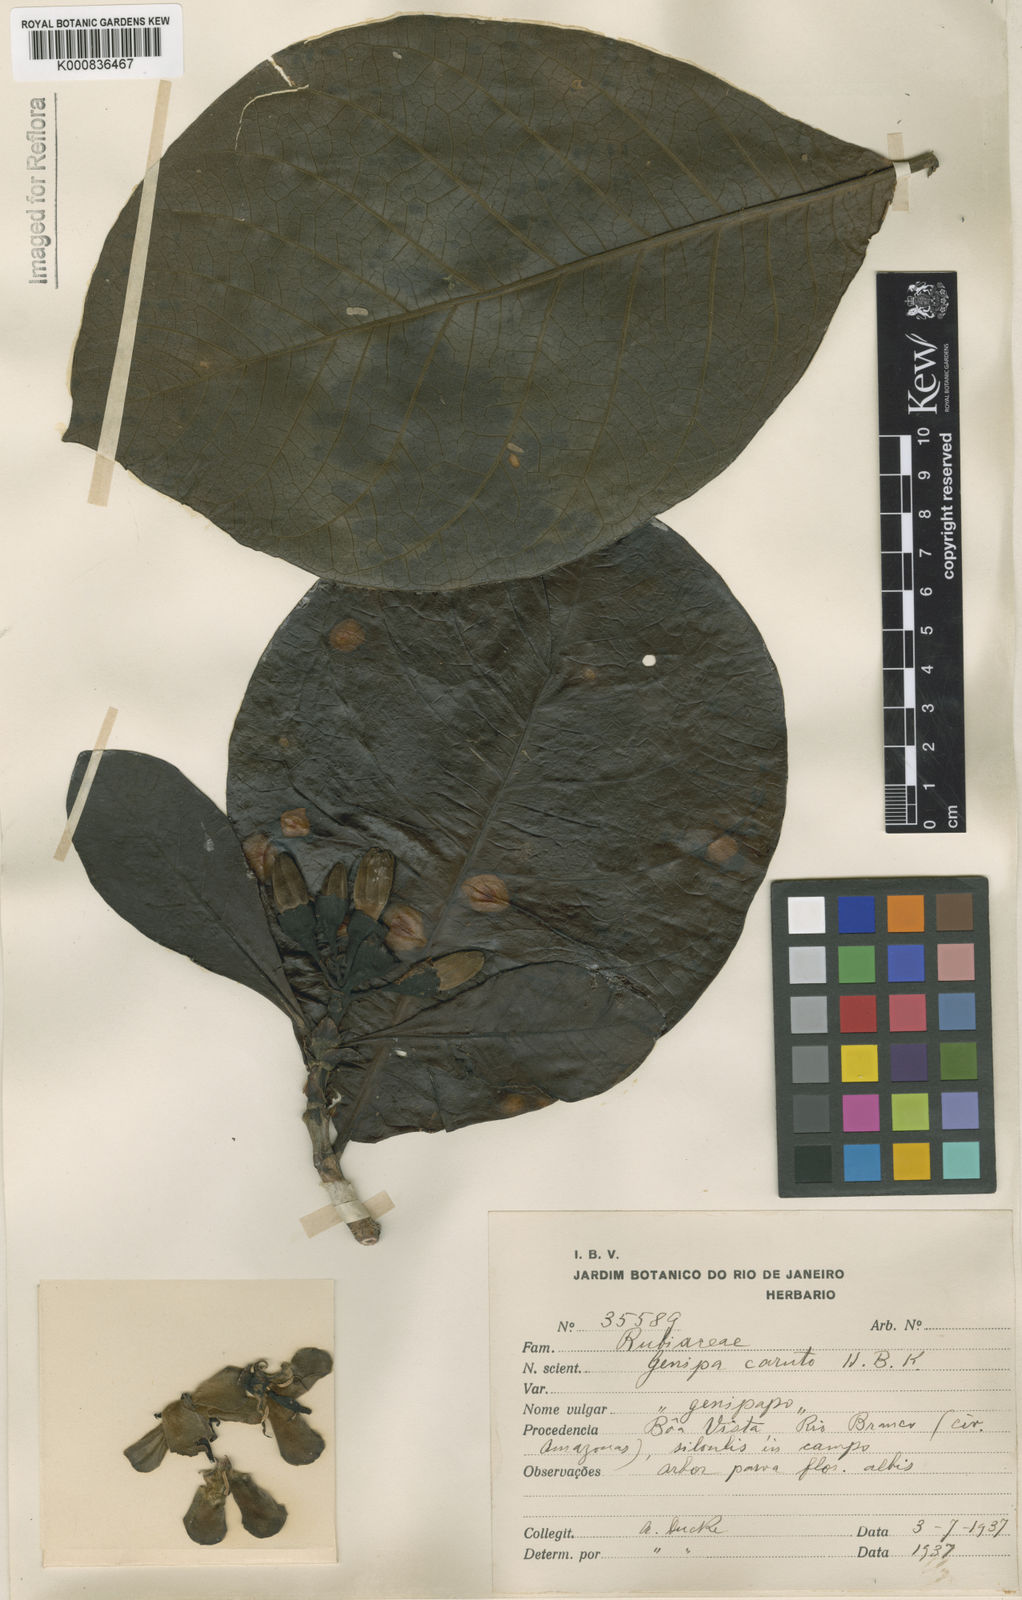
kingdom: Plantae
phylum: Tracheophyta
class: Magnoliopsida
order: Gentianales
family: Rubiaceae
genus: Genipa
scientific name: Genipa americana
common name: Genipap
